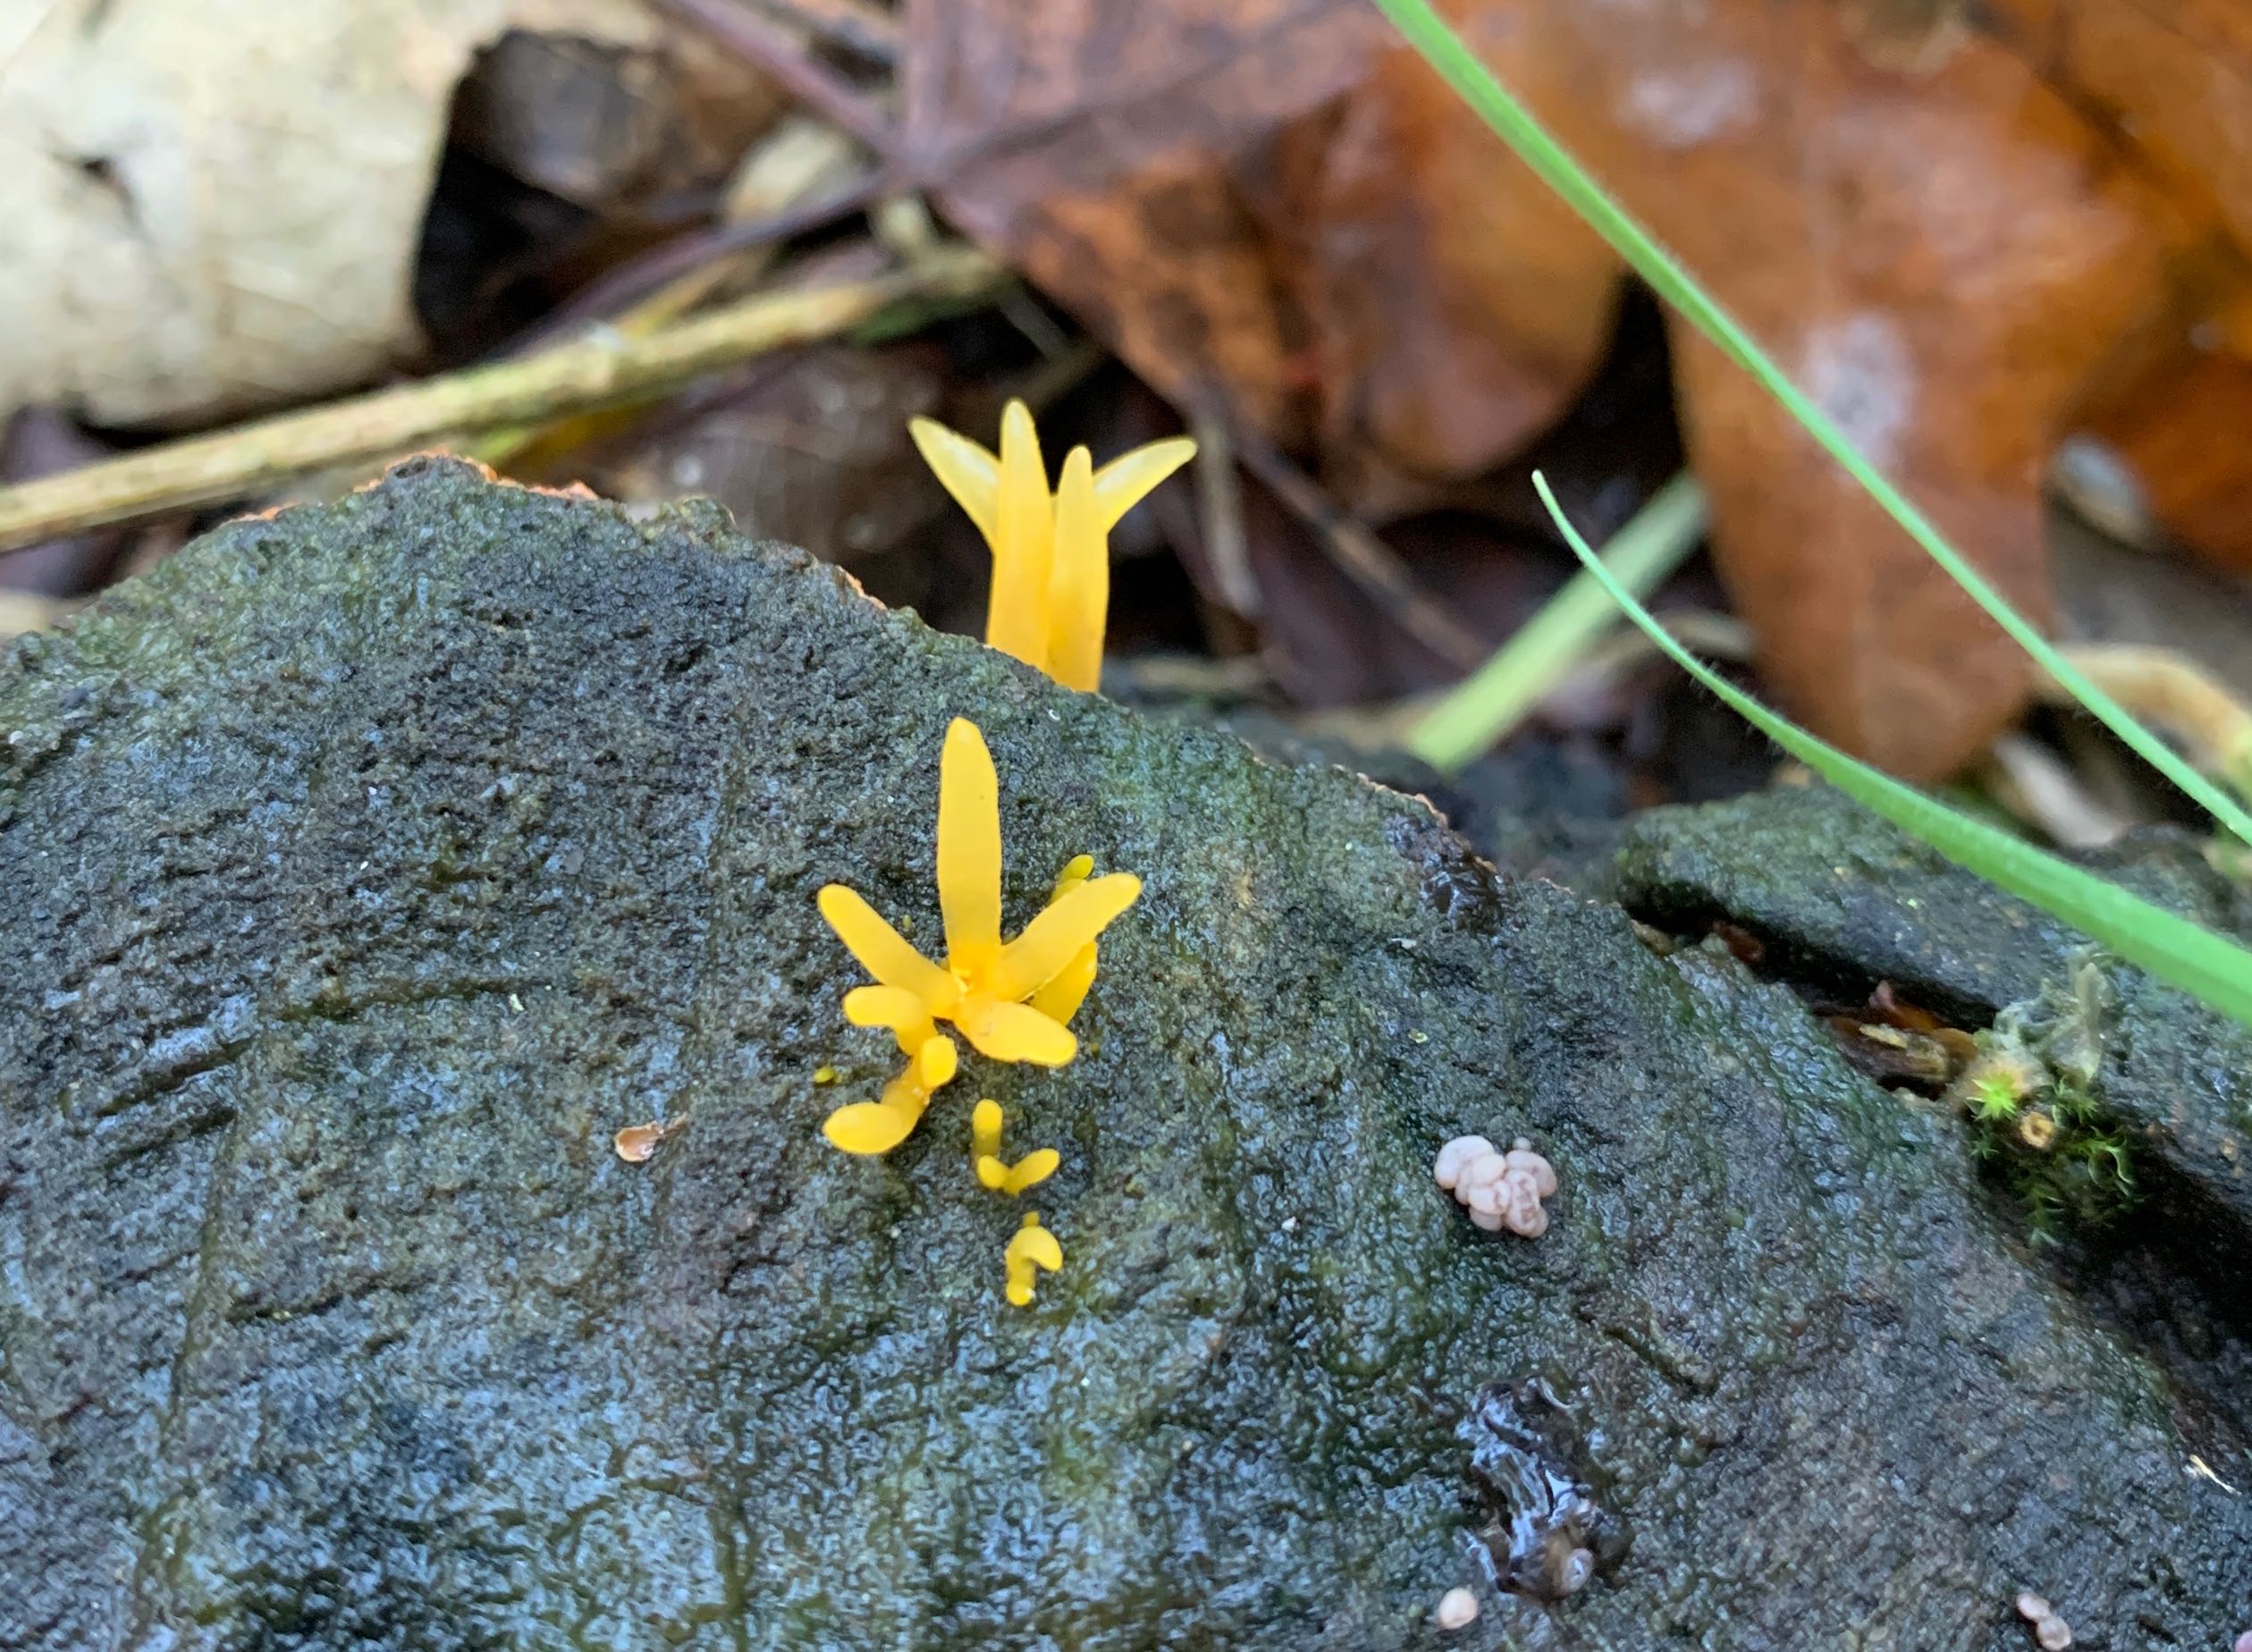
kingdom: Fungi
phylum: Basidiomycota
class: Dacrymycetes
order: Dacrymycetales
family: Dacrymycetaceae
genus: Calocera
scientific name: Calocera cornea
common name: liden guldgaffel
